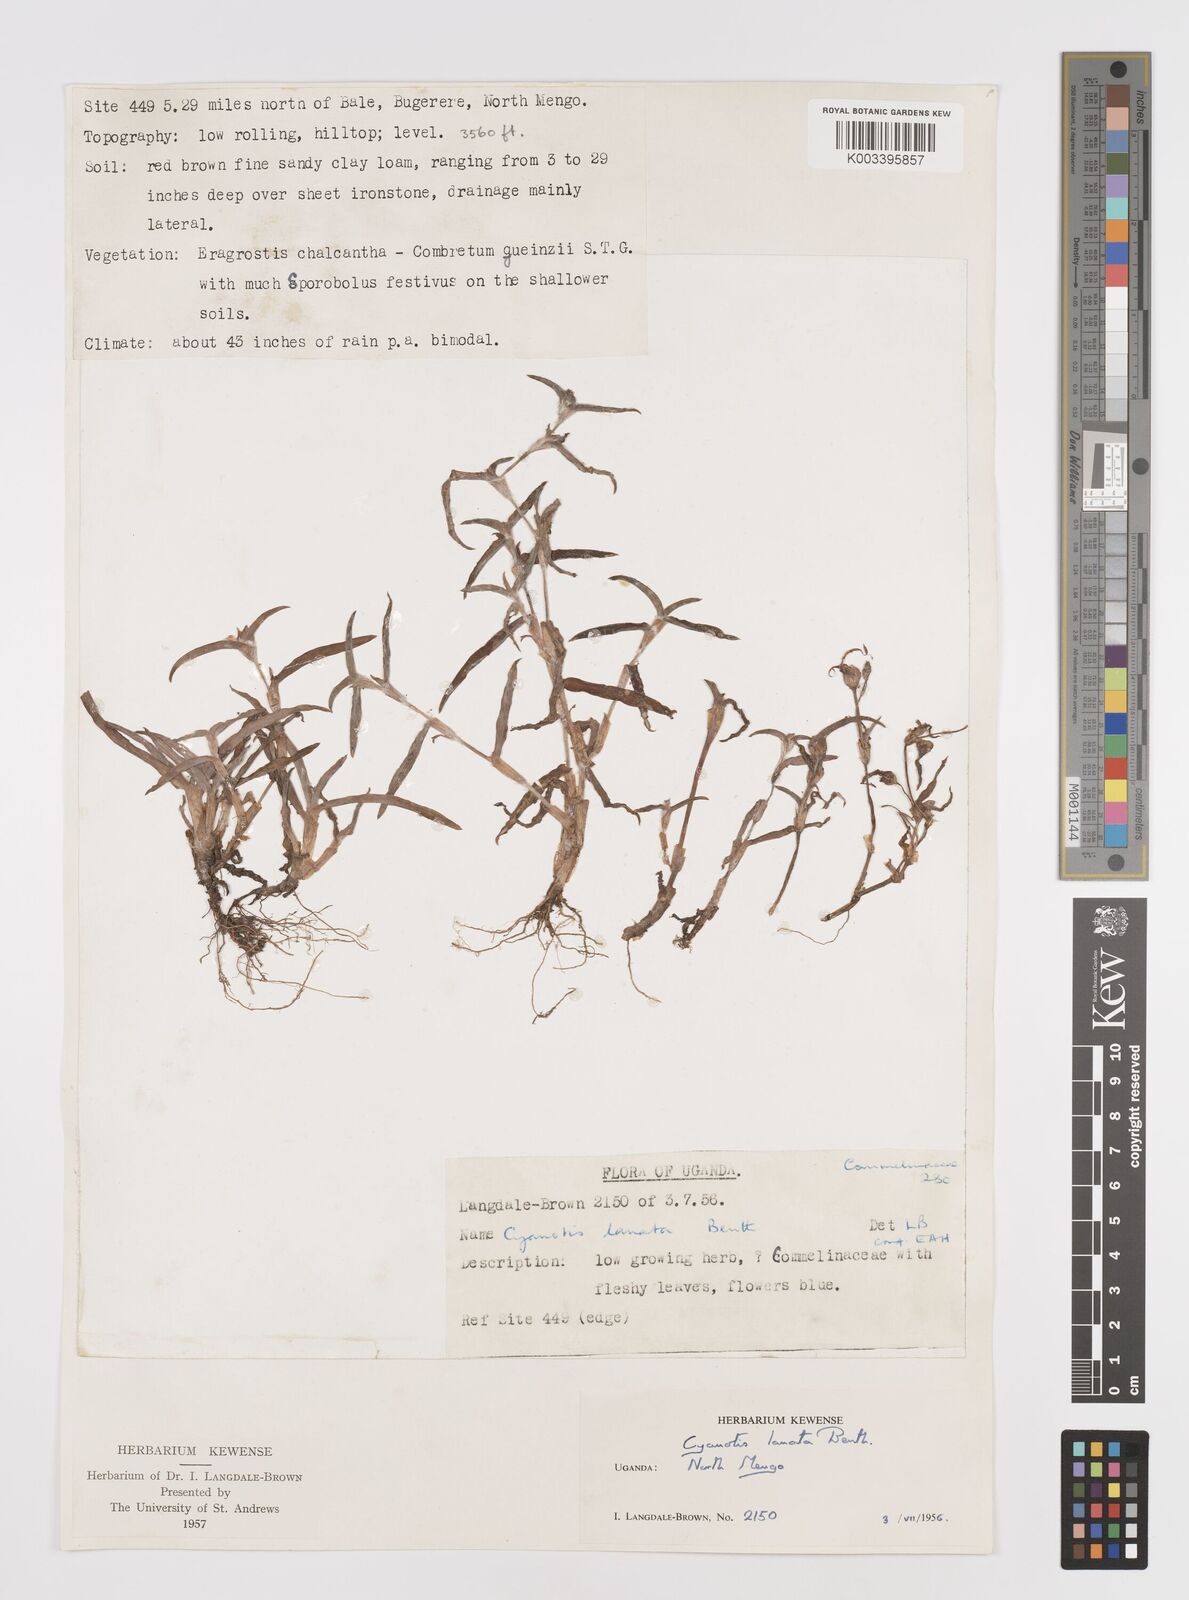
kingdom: Plantae
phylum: Tracheophyta
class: Liliopsida
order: Commelinales
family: Commelinaceae
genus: Cyanotis
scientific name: Cyanotis lanata
